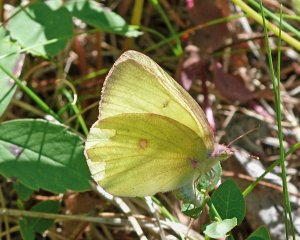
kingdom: Animalia
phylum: Arthropoda
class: Insecta
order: Lepidoptera
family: Pieridae
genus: Colias
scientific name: Colias interior
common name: Pink-edged Sulphur
